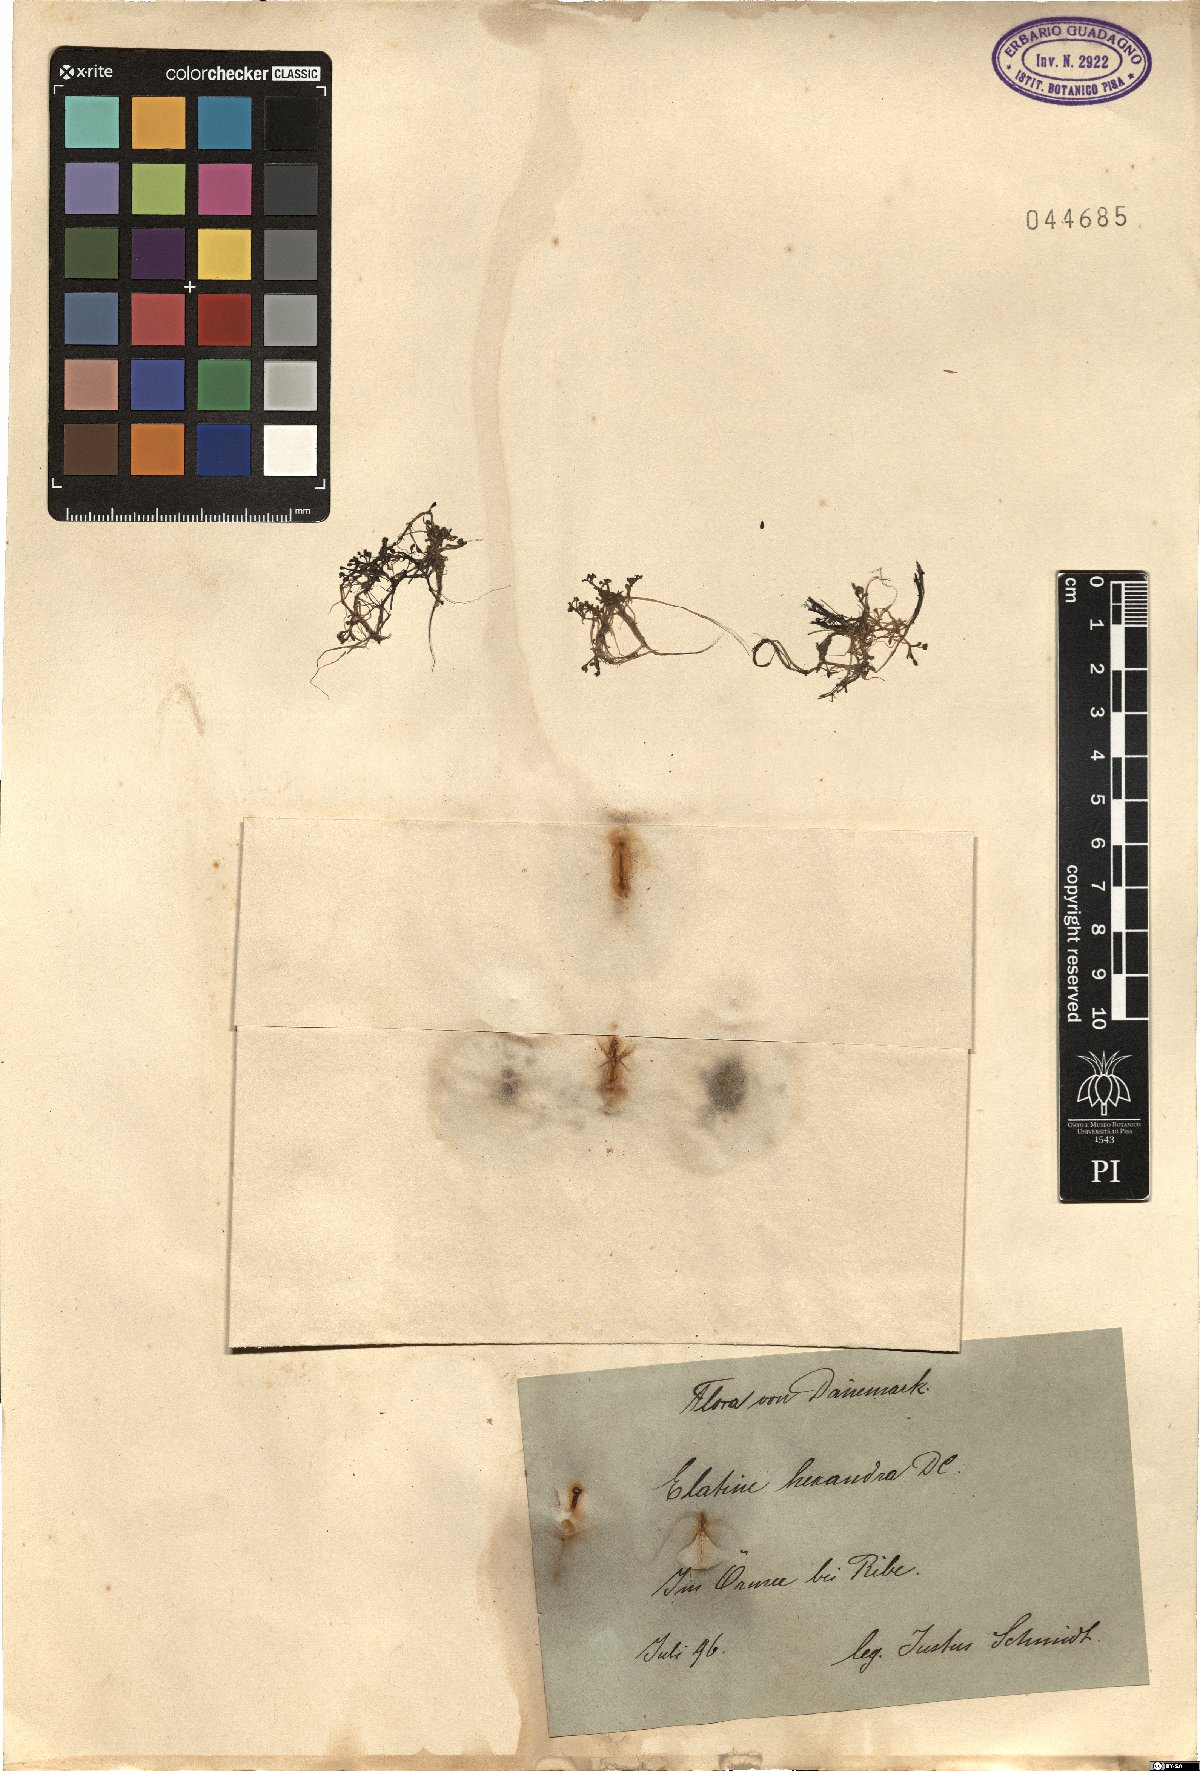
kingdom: Plantae
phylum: Tracheophyta
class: Magnoliopsida
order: Malpighiales
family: Elatinaceae
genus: Elatine
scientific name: Elatine hexandra
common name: Six-stamened waterwort
